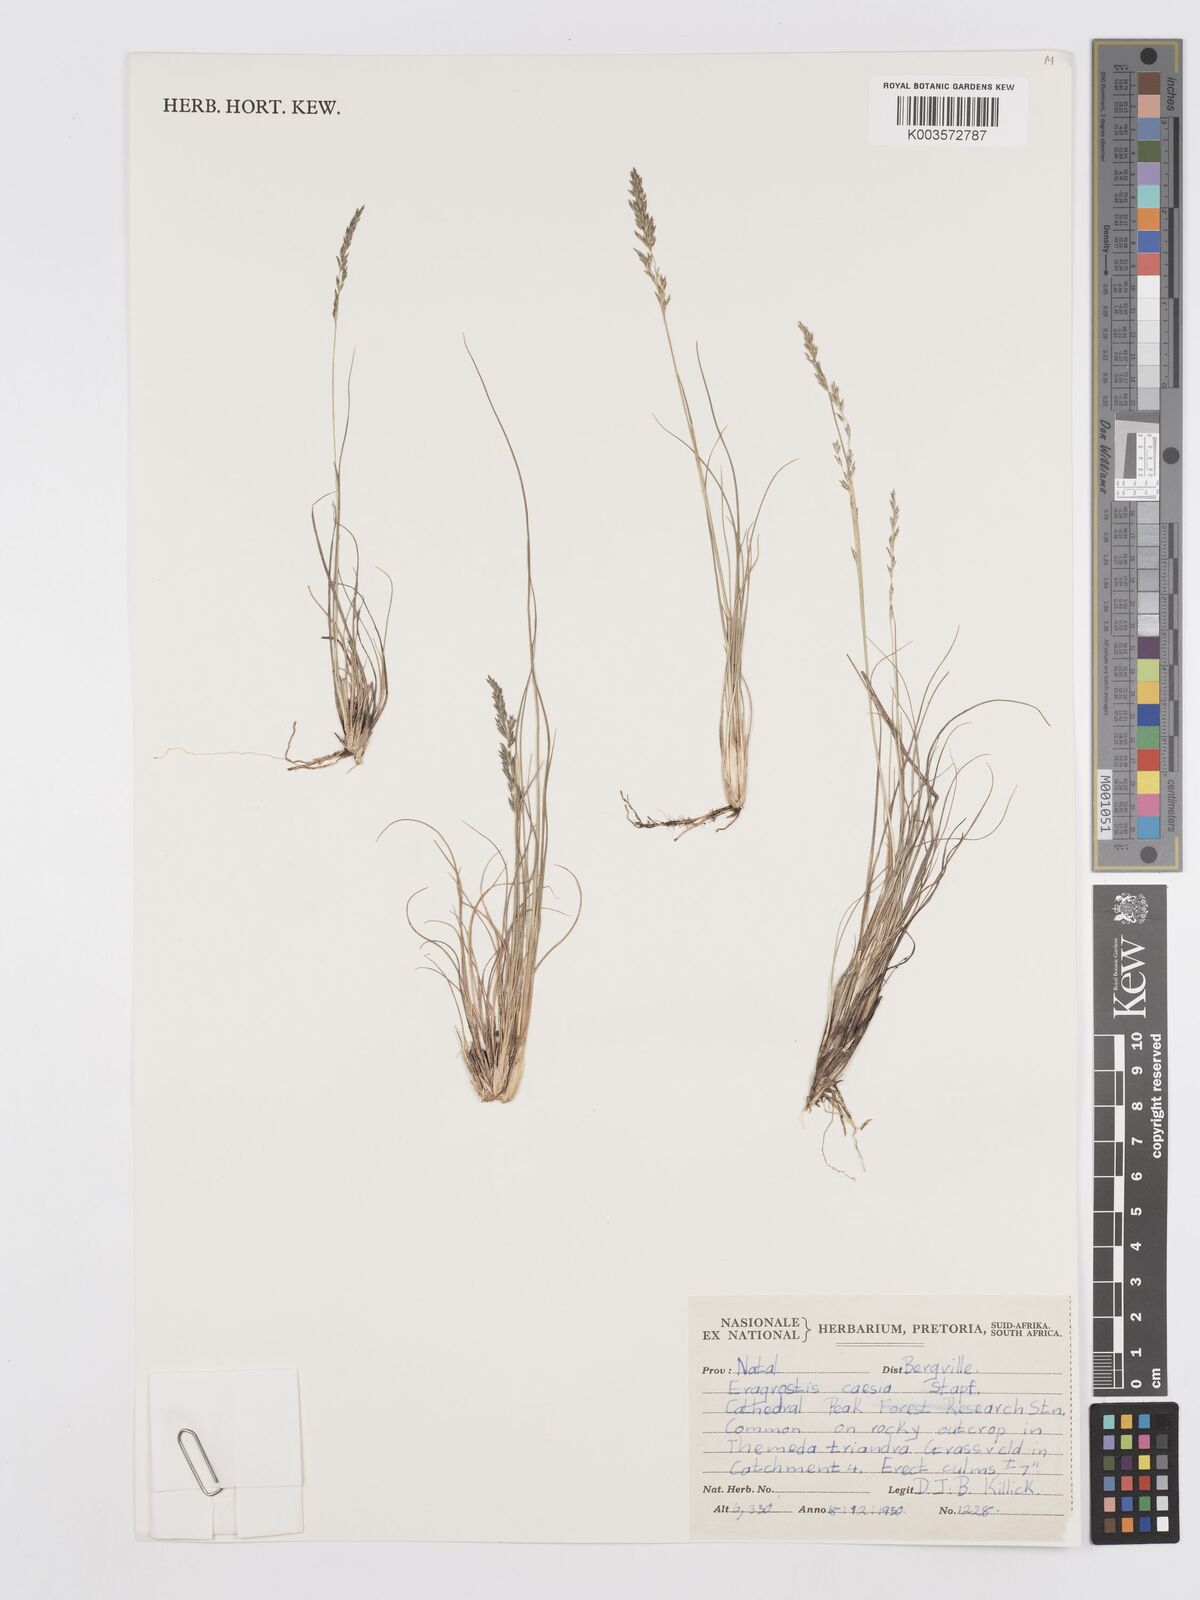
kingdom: Plantae
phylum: Tracheophyta
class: Liliopsida
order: Poales
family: Poaceae
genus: Eragrostis
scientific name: Eragrostis caesia
